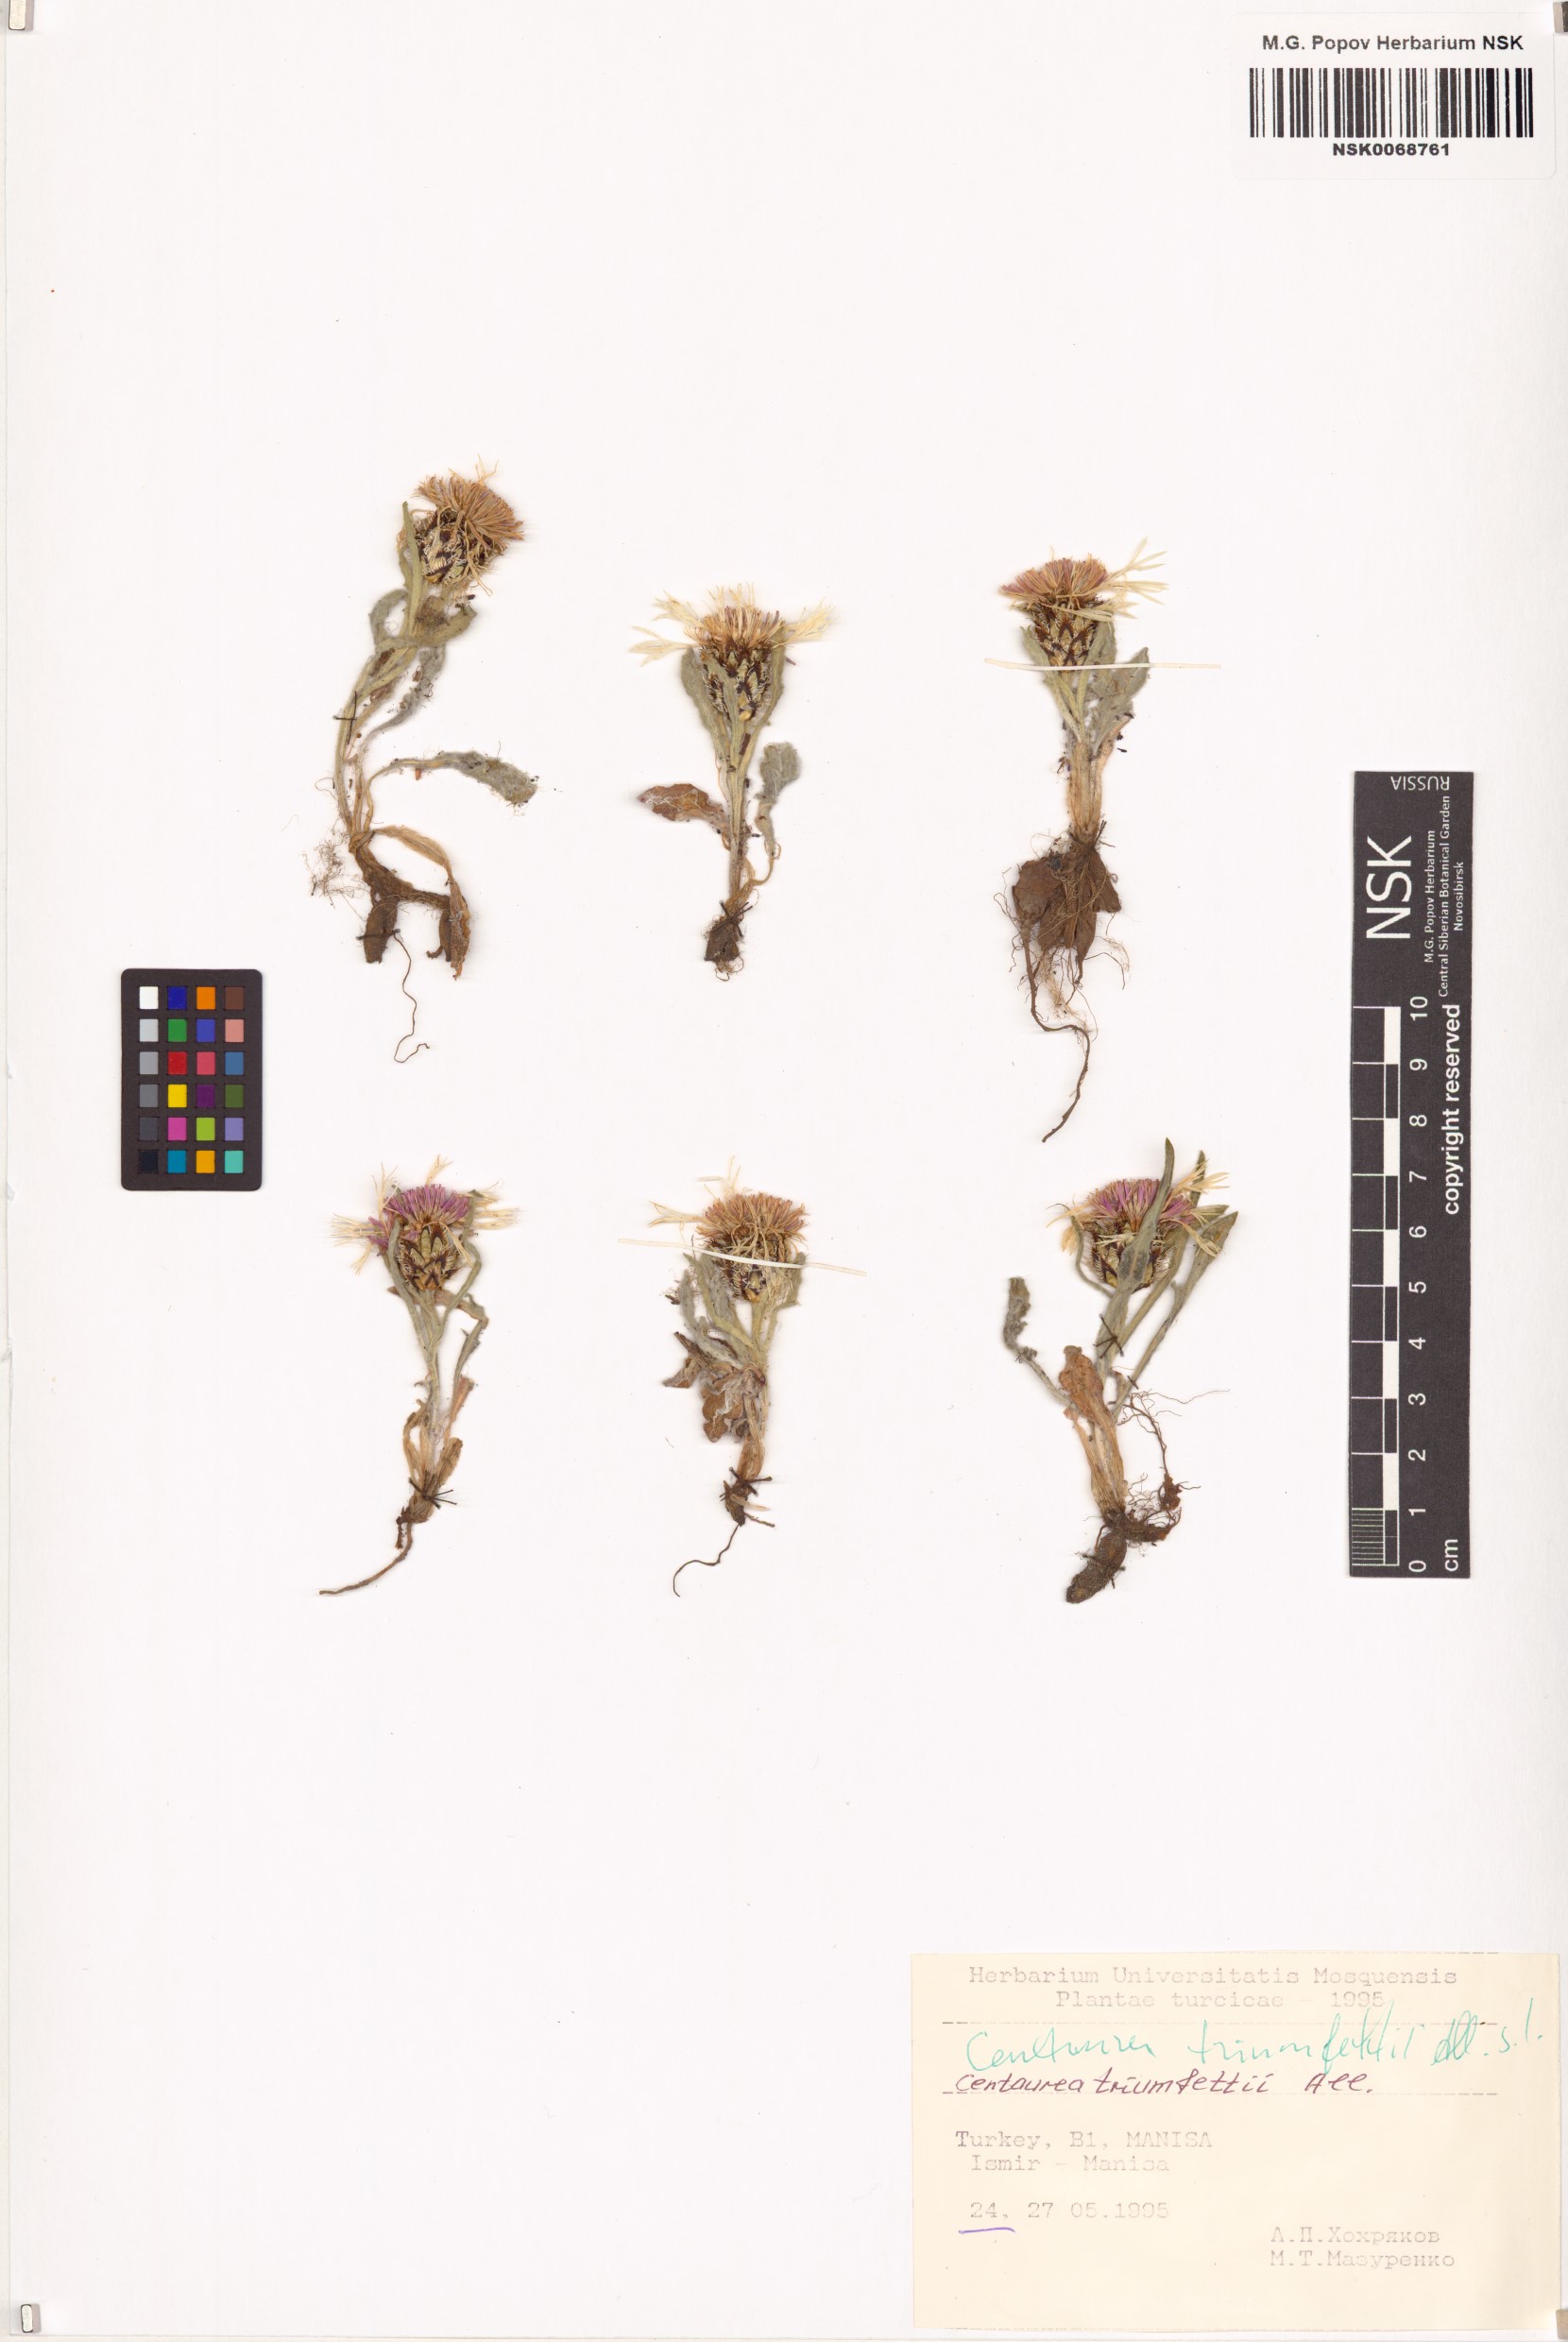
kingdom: Plantae
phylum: Tracheophyta
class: Magnoliopsida
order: Asterales
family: Asteraceae
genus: Centaurea
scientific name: Centaurea triumfettii
